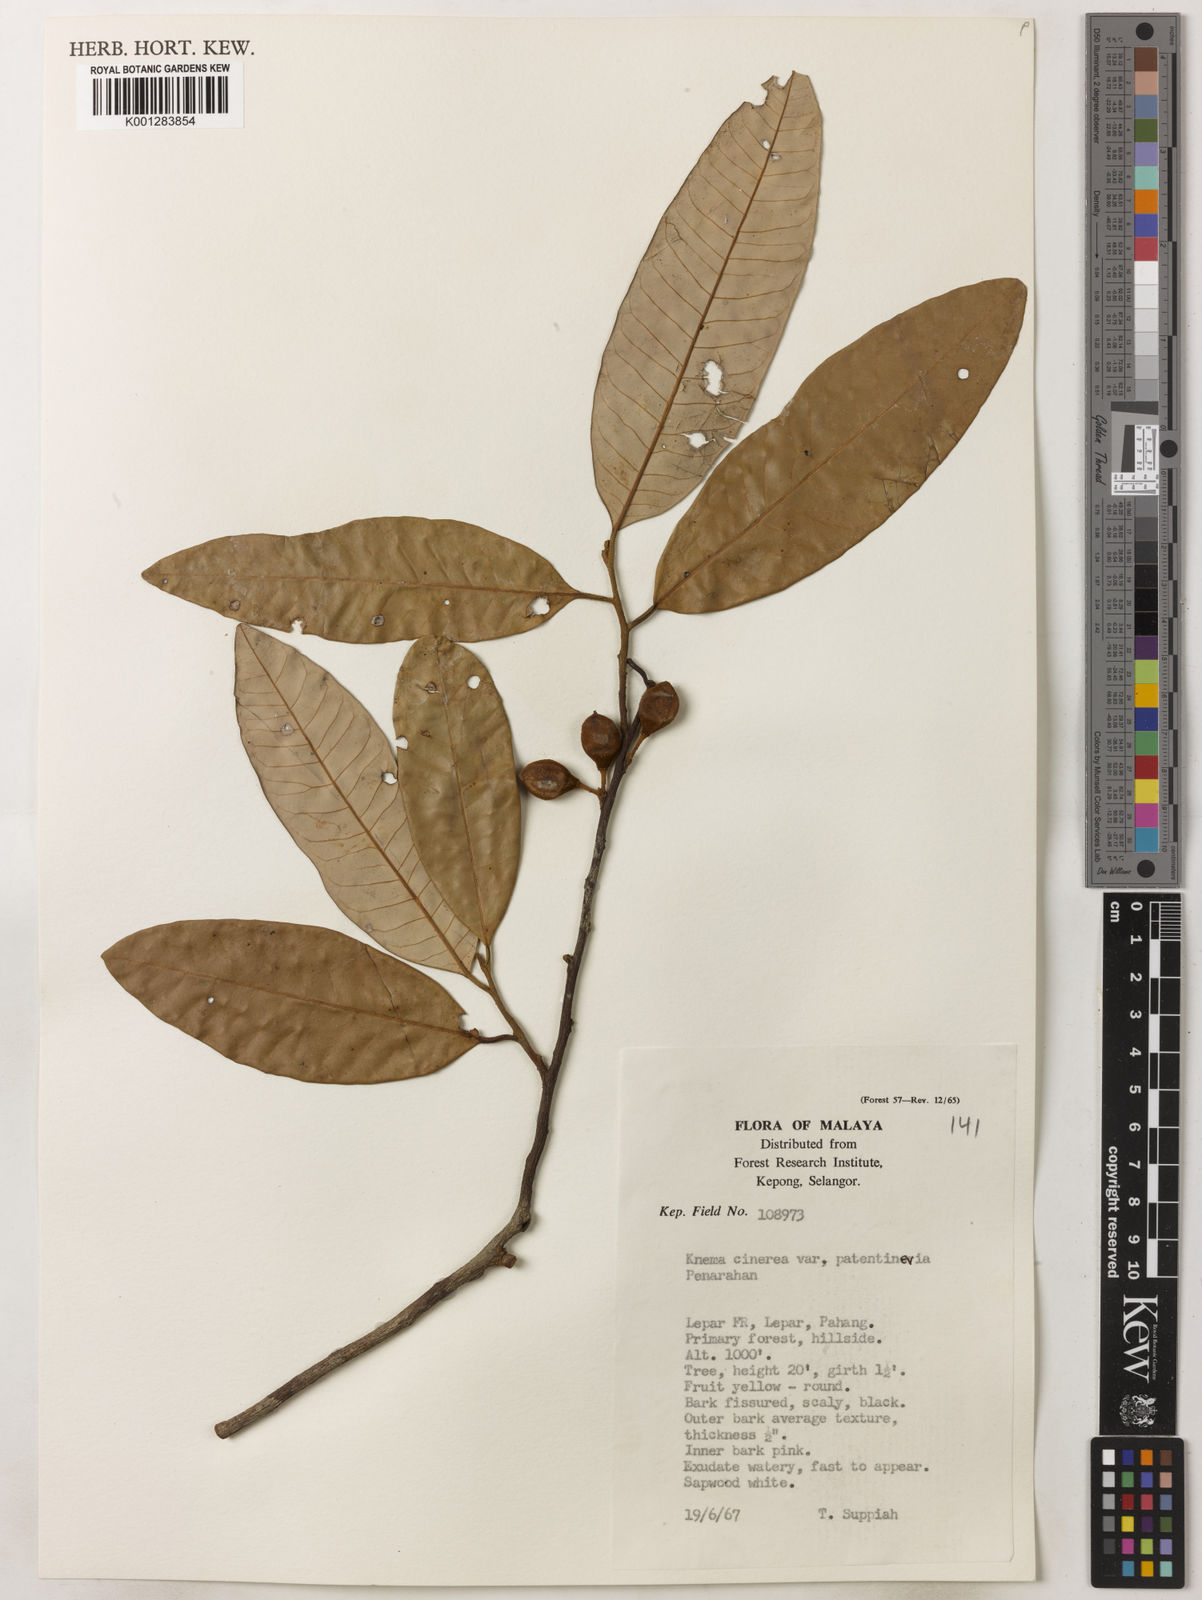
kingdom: Plantae
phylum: Tracheophyta
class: Magnoliopsida
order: Magnoliales
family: Myristicaceae
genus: Knema
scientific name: Knema
